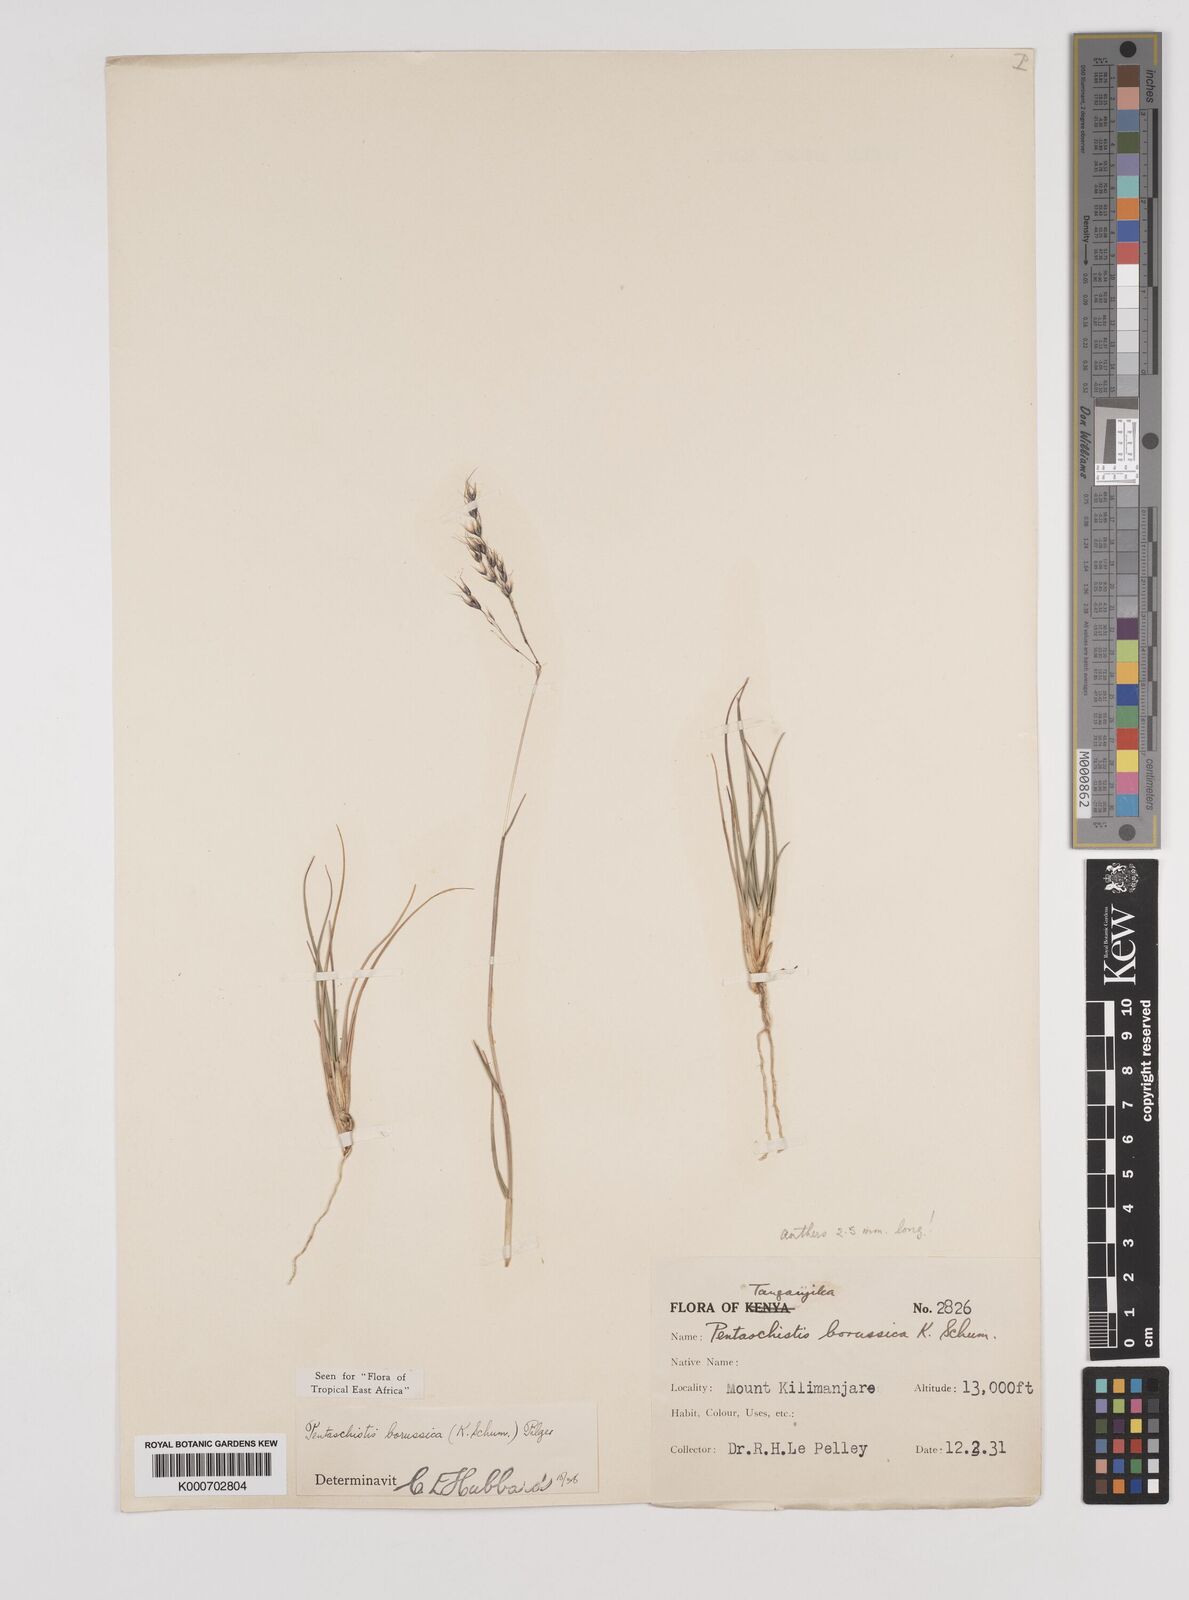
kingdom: Plantae
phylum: Tracheophyta
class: Liliopsida
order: Poales
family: Poaceae
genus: Pentameris
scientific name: Pentameris borussica
